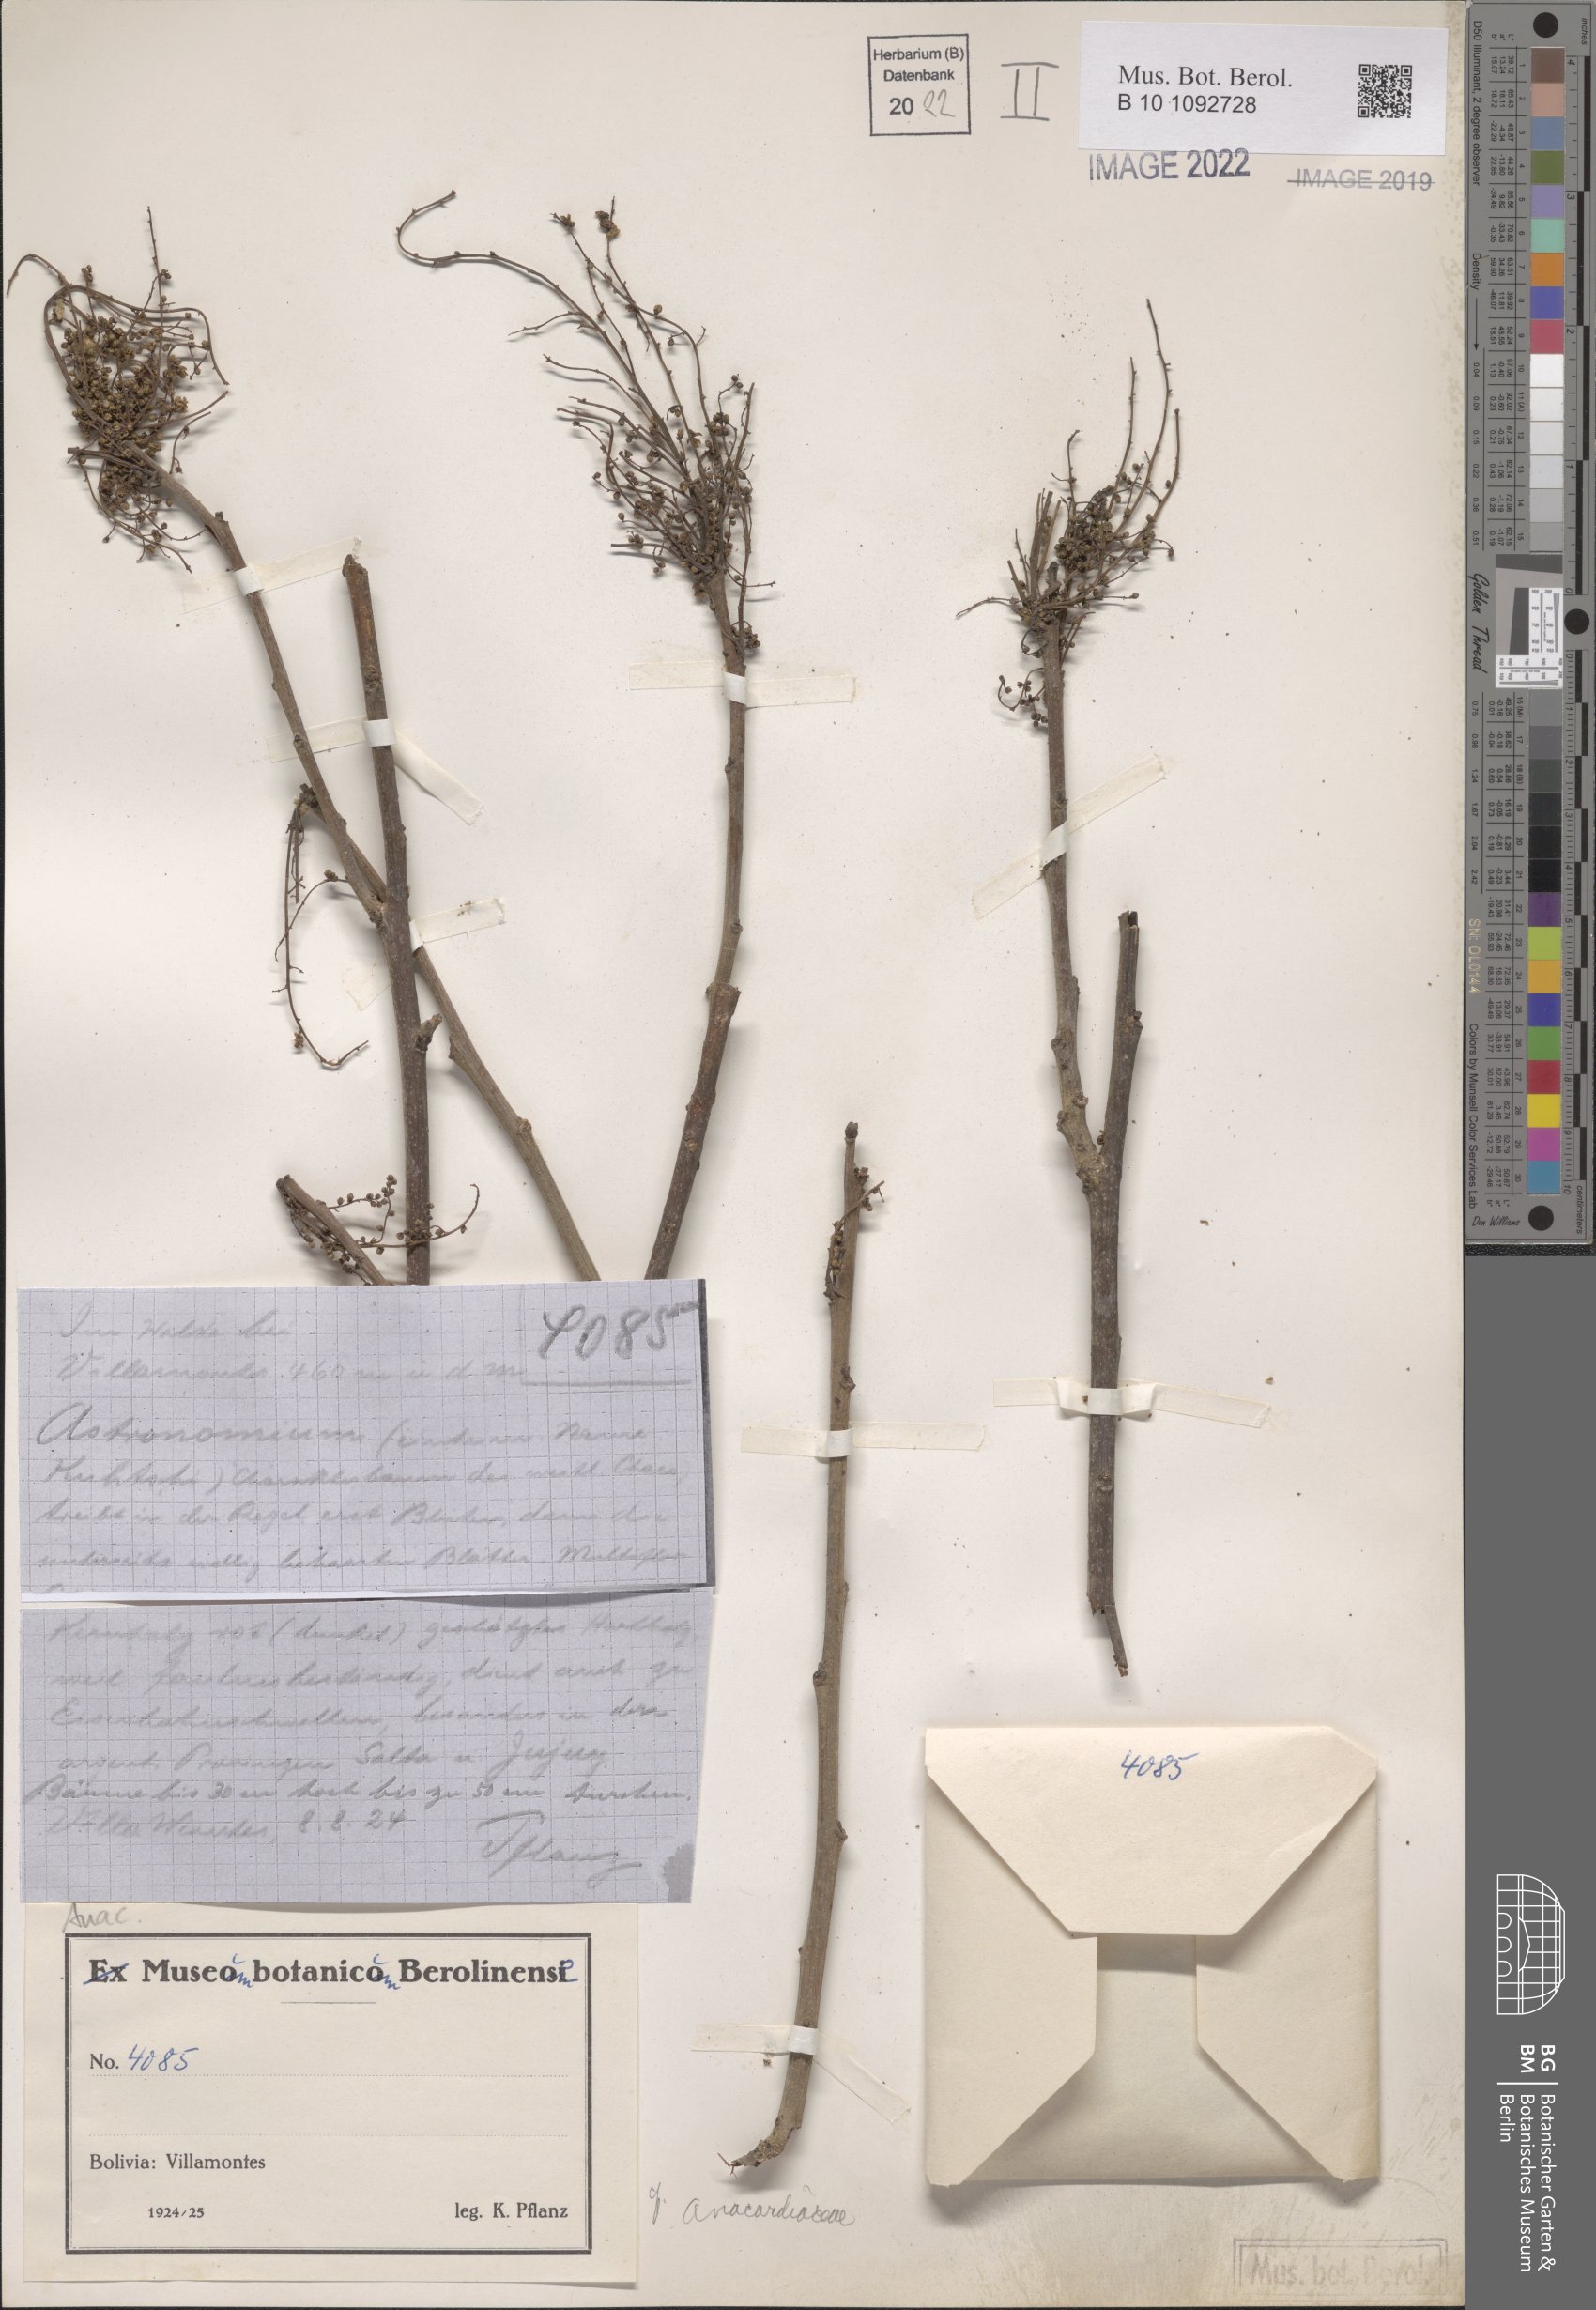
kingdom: Plantae
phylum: Tracheophyta
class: Magnoliopsida
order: Sapindales
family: Anacardiaceae
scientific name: Anacardiaceae
